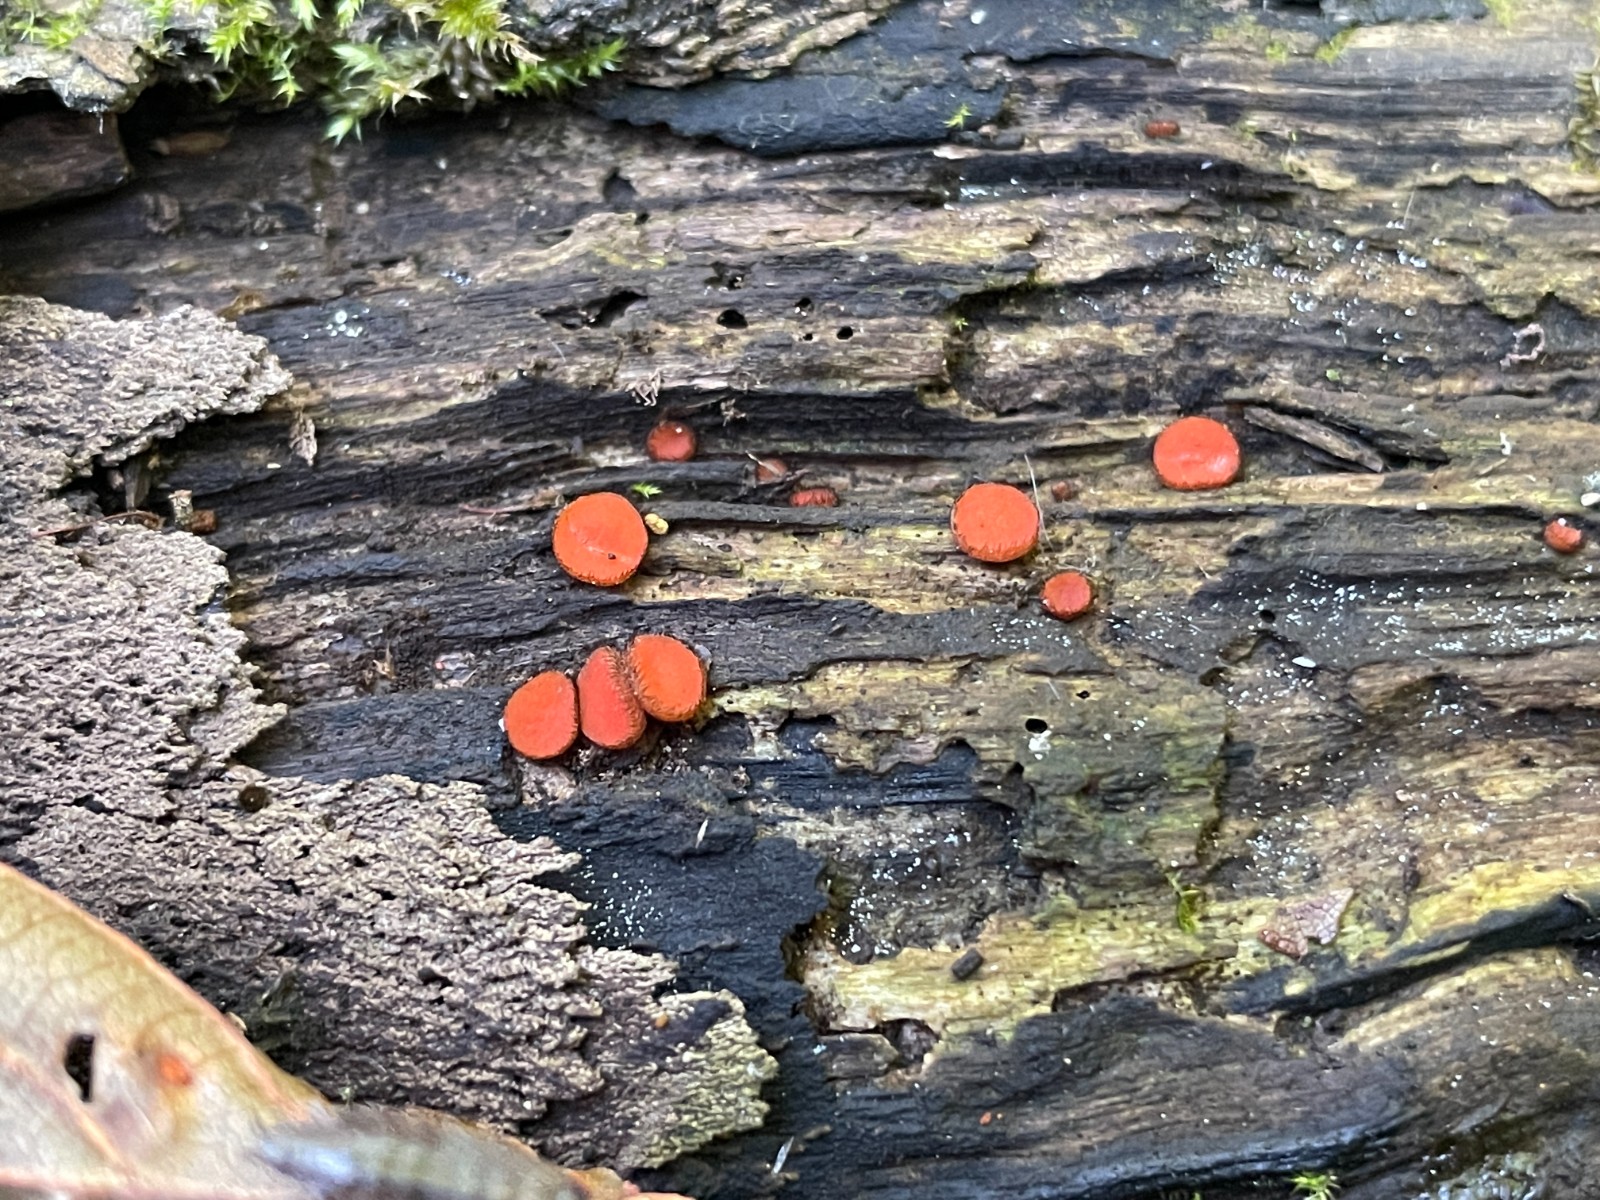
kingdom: Fungi
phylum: Ascomycota
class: Pezizomycetes
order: Pezizales
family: Pyronemataceae
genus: Scutellinia
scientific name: Scutellinia
